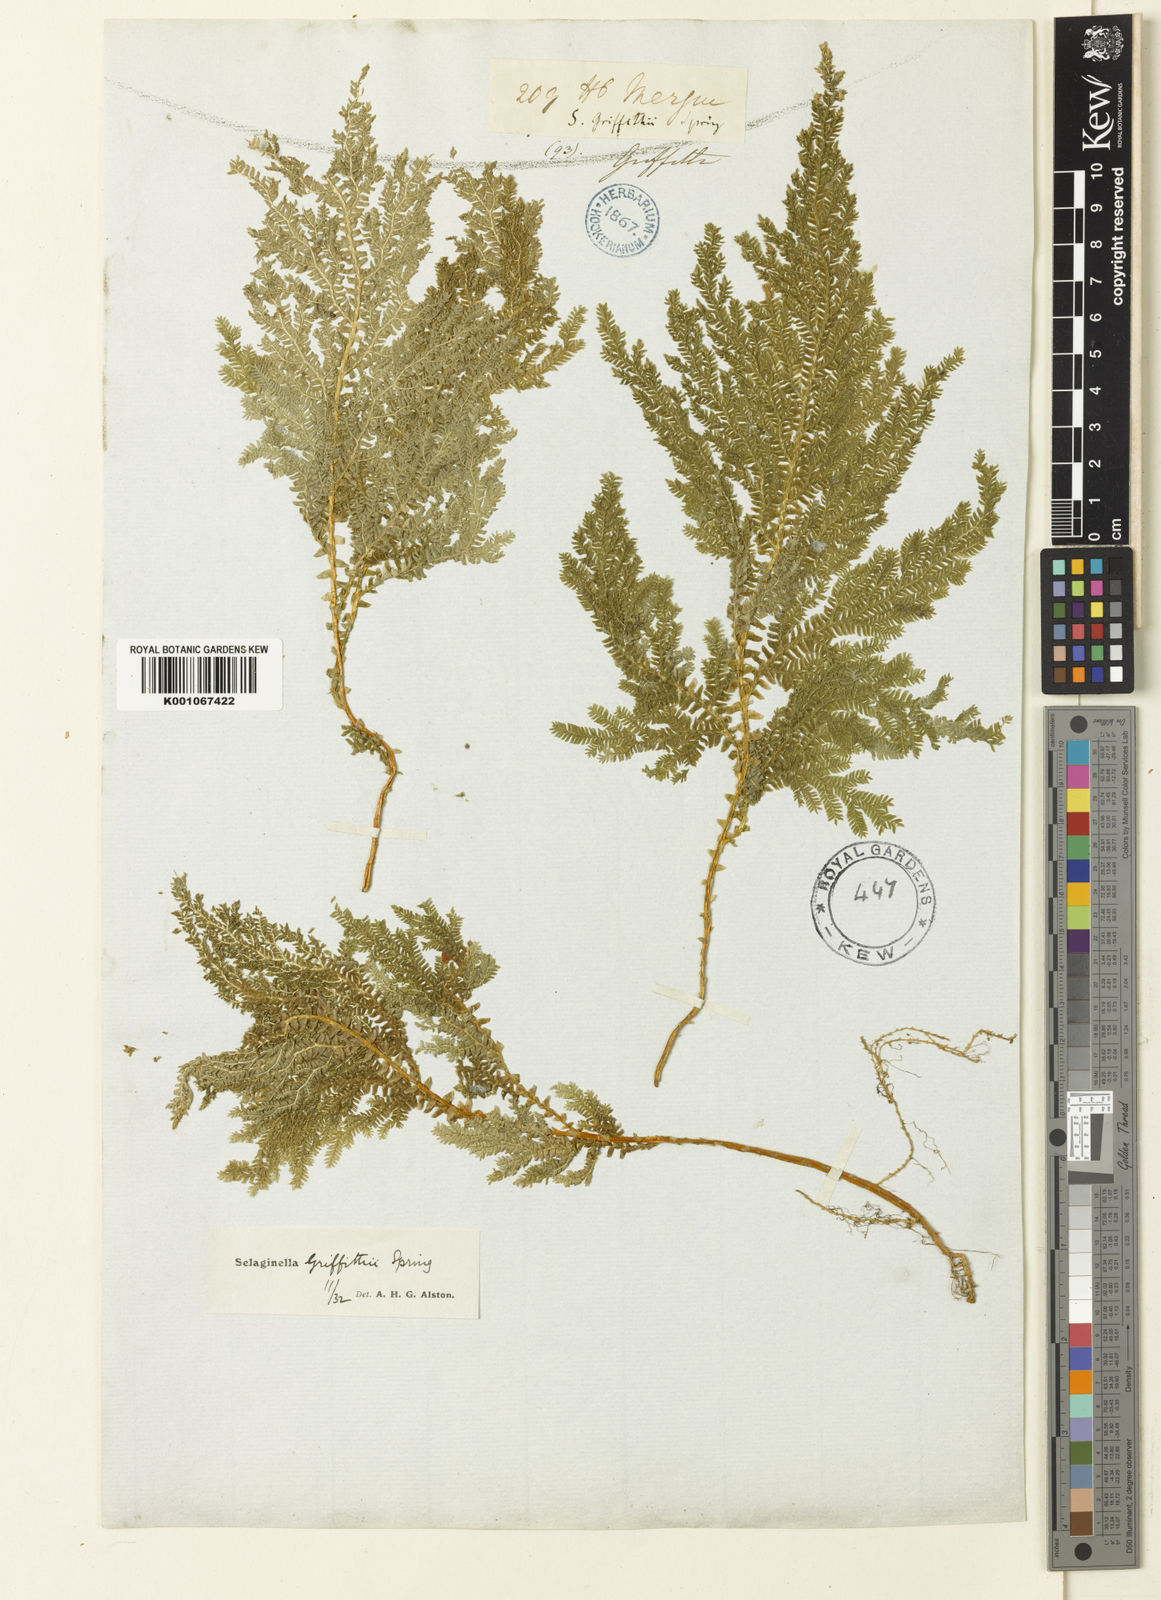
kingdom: Plantae
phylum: Tracheophyta
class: Lycopodiopsida
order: Selaginellales
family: Selaginellaceae
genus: Selaginella
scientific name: Selaginella
